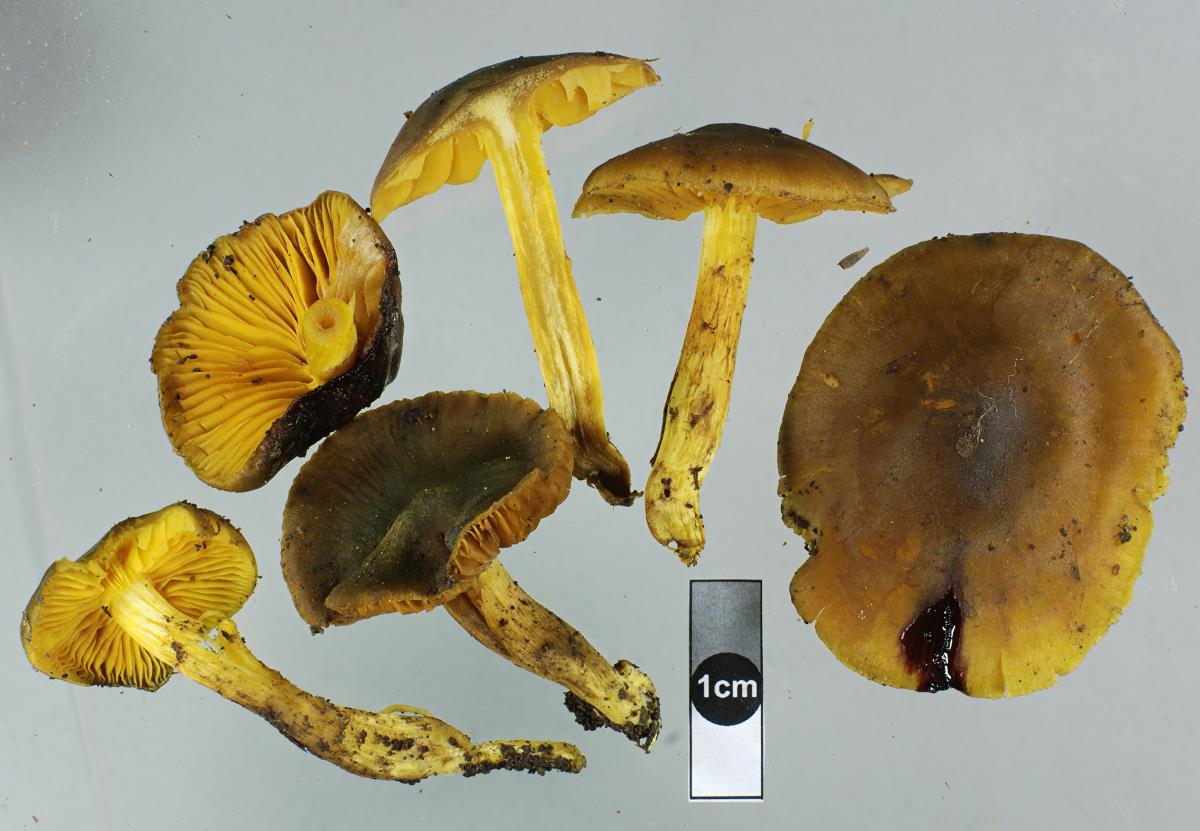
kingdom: Fungi
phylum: Basidiomycota
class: Agaricomycetes
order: Agaricales
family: Cortinariaceae
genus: Cortinarius
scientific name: Cortinarius
